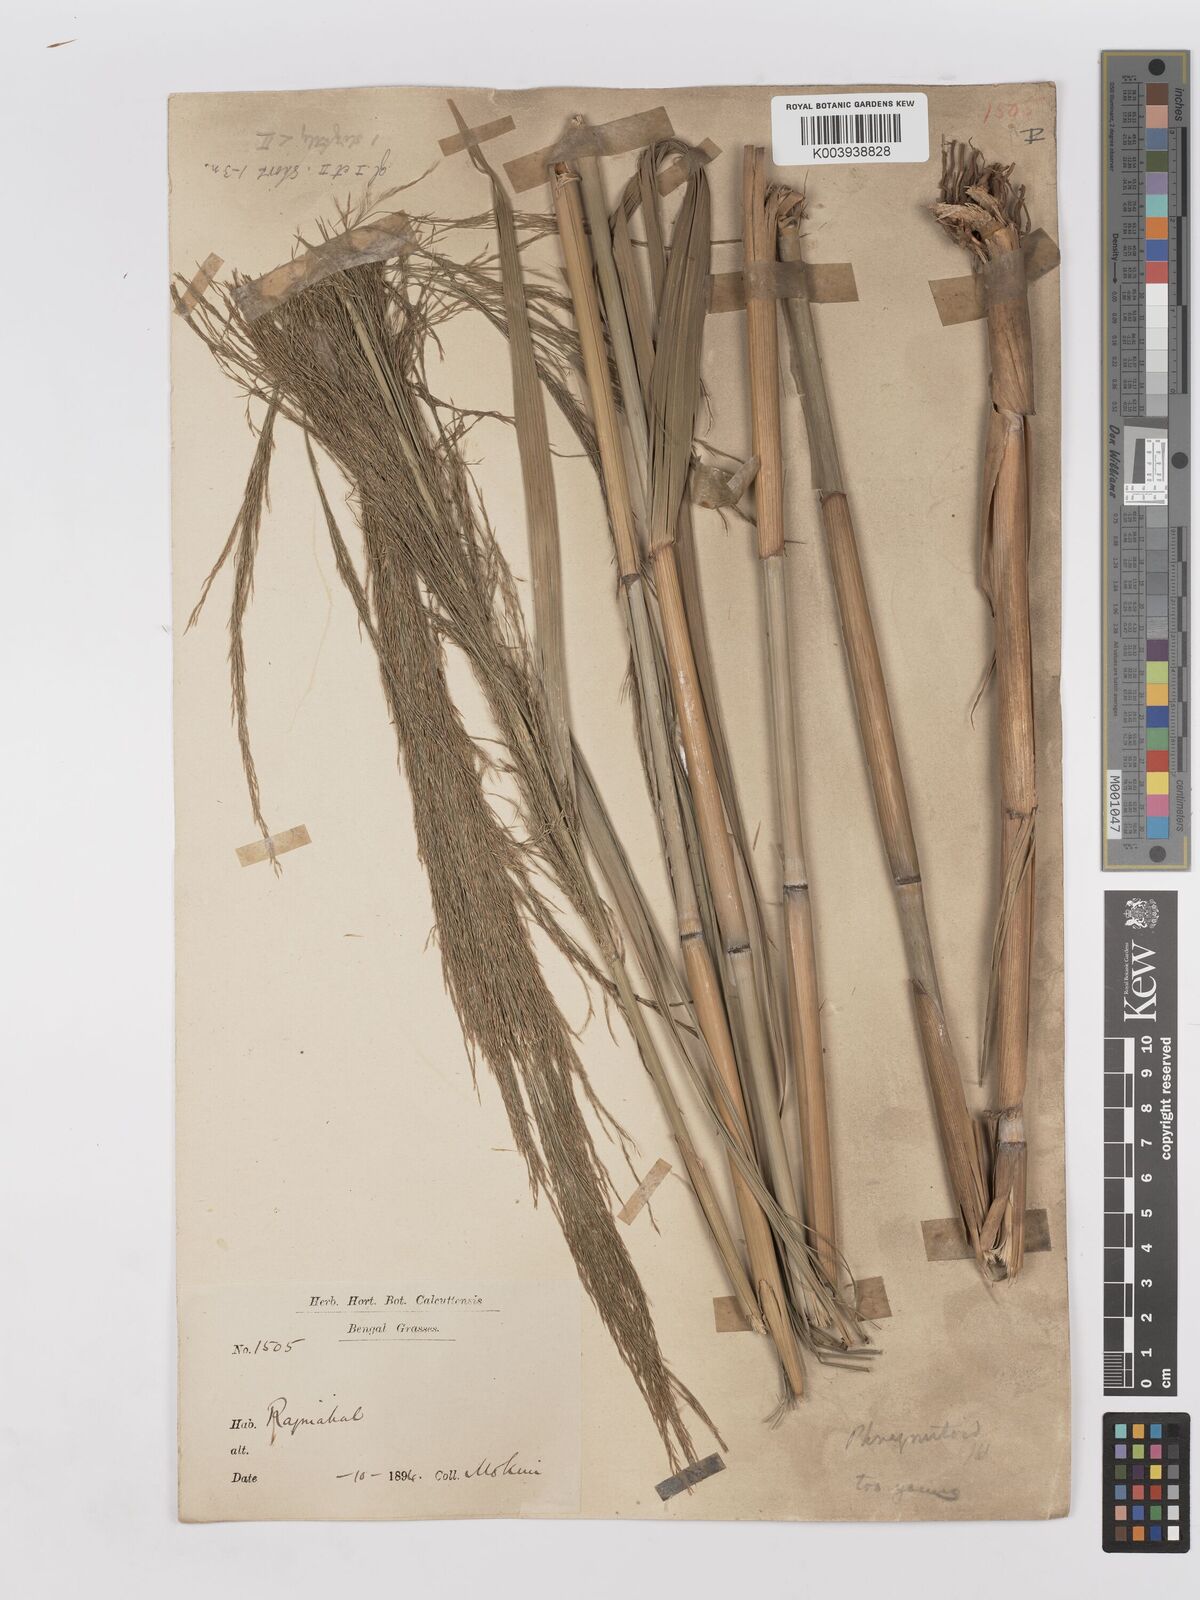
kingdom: Plantae
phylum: Tracheophyta
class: Liliopsida
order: Poales
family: Poaceae
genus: Phragmites
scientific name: Phragmites karka
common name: Tropical reed
